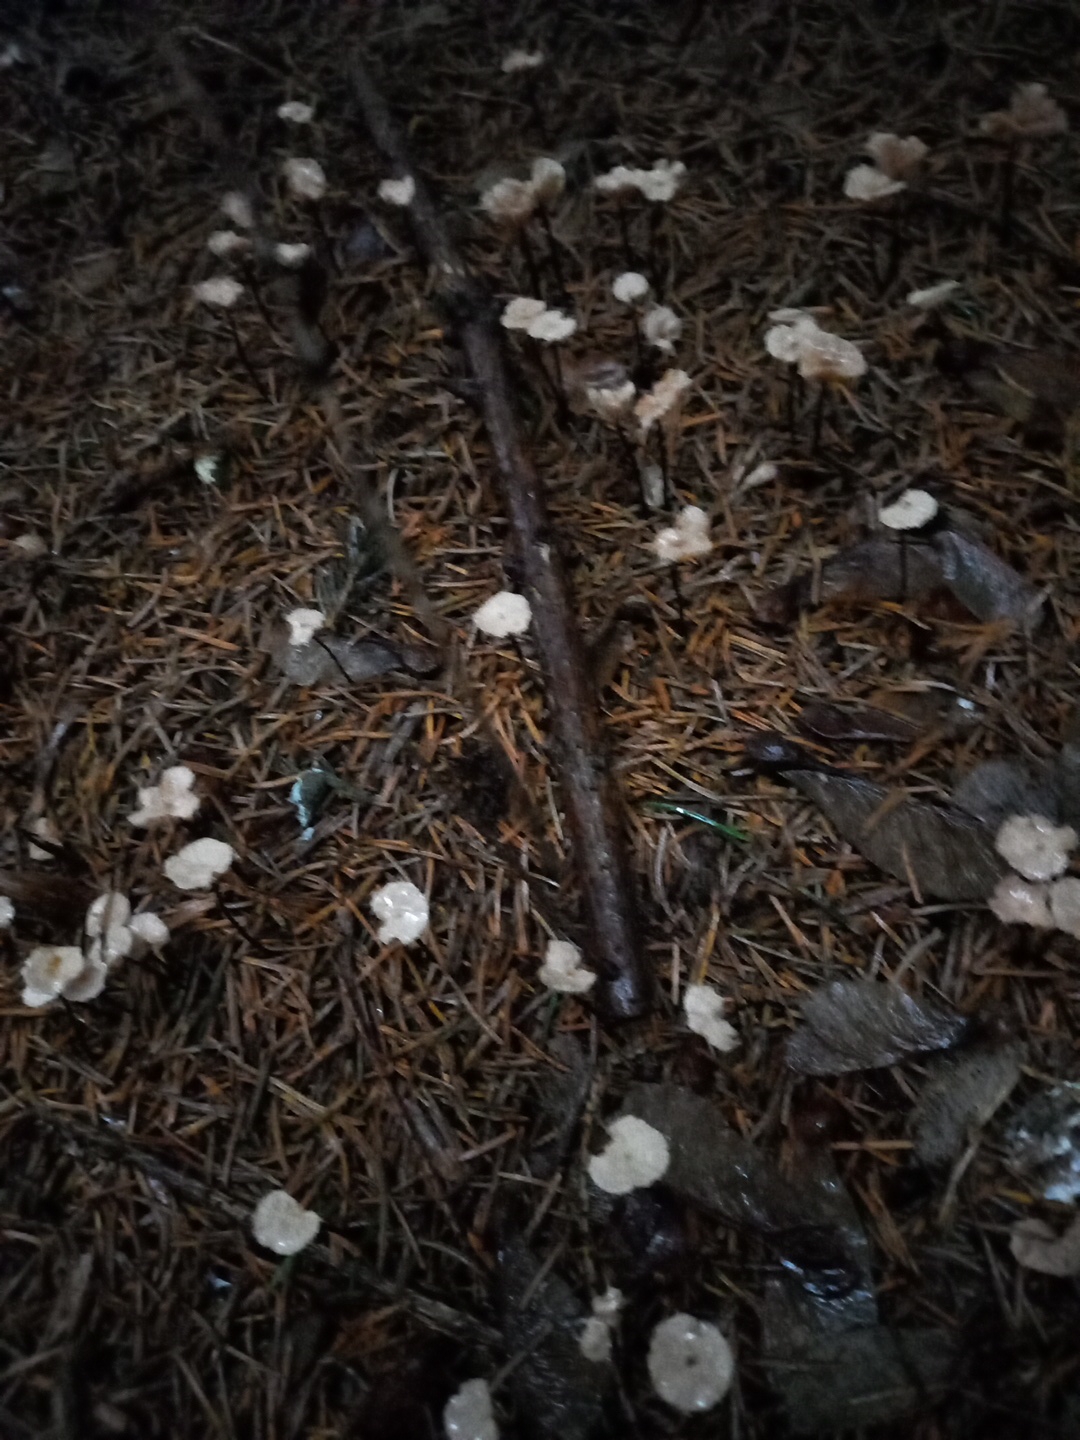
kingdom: Fungi
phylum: Basidiomycota
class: Agaricomycetes
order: Agaricales
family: Omphalotaceae
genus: Paragymnopus
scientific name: Paragymnopus perforans
